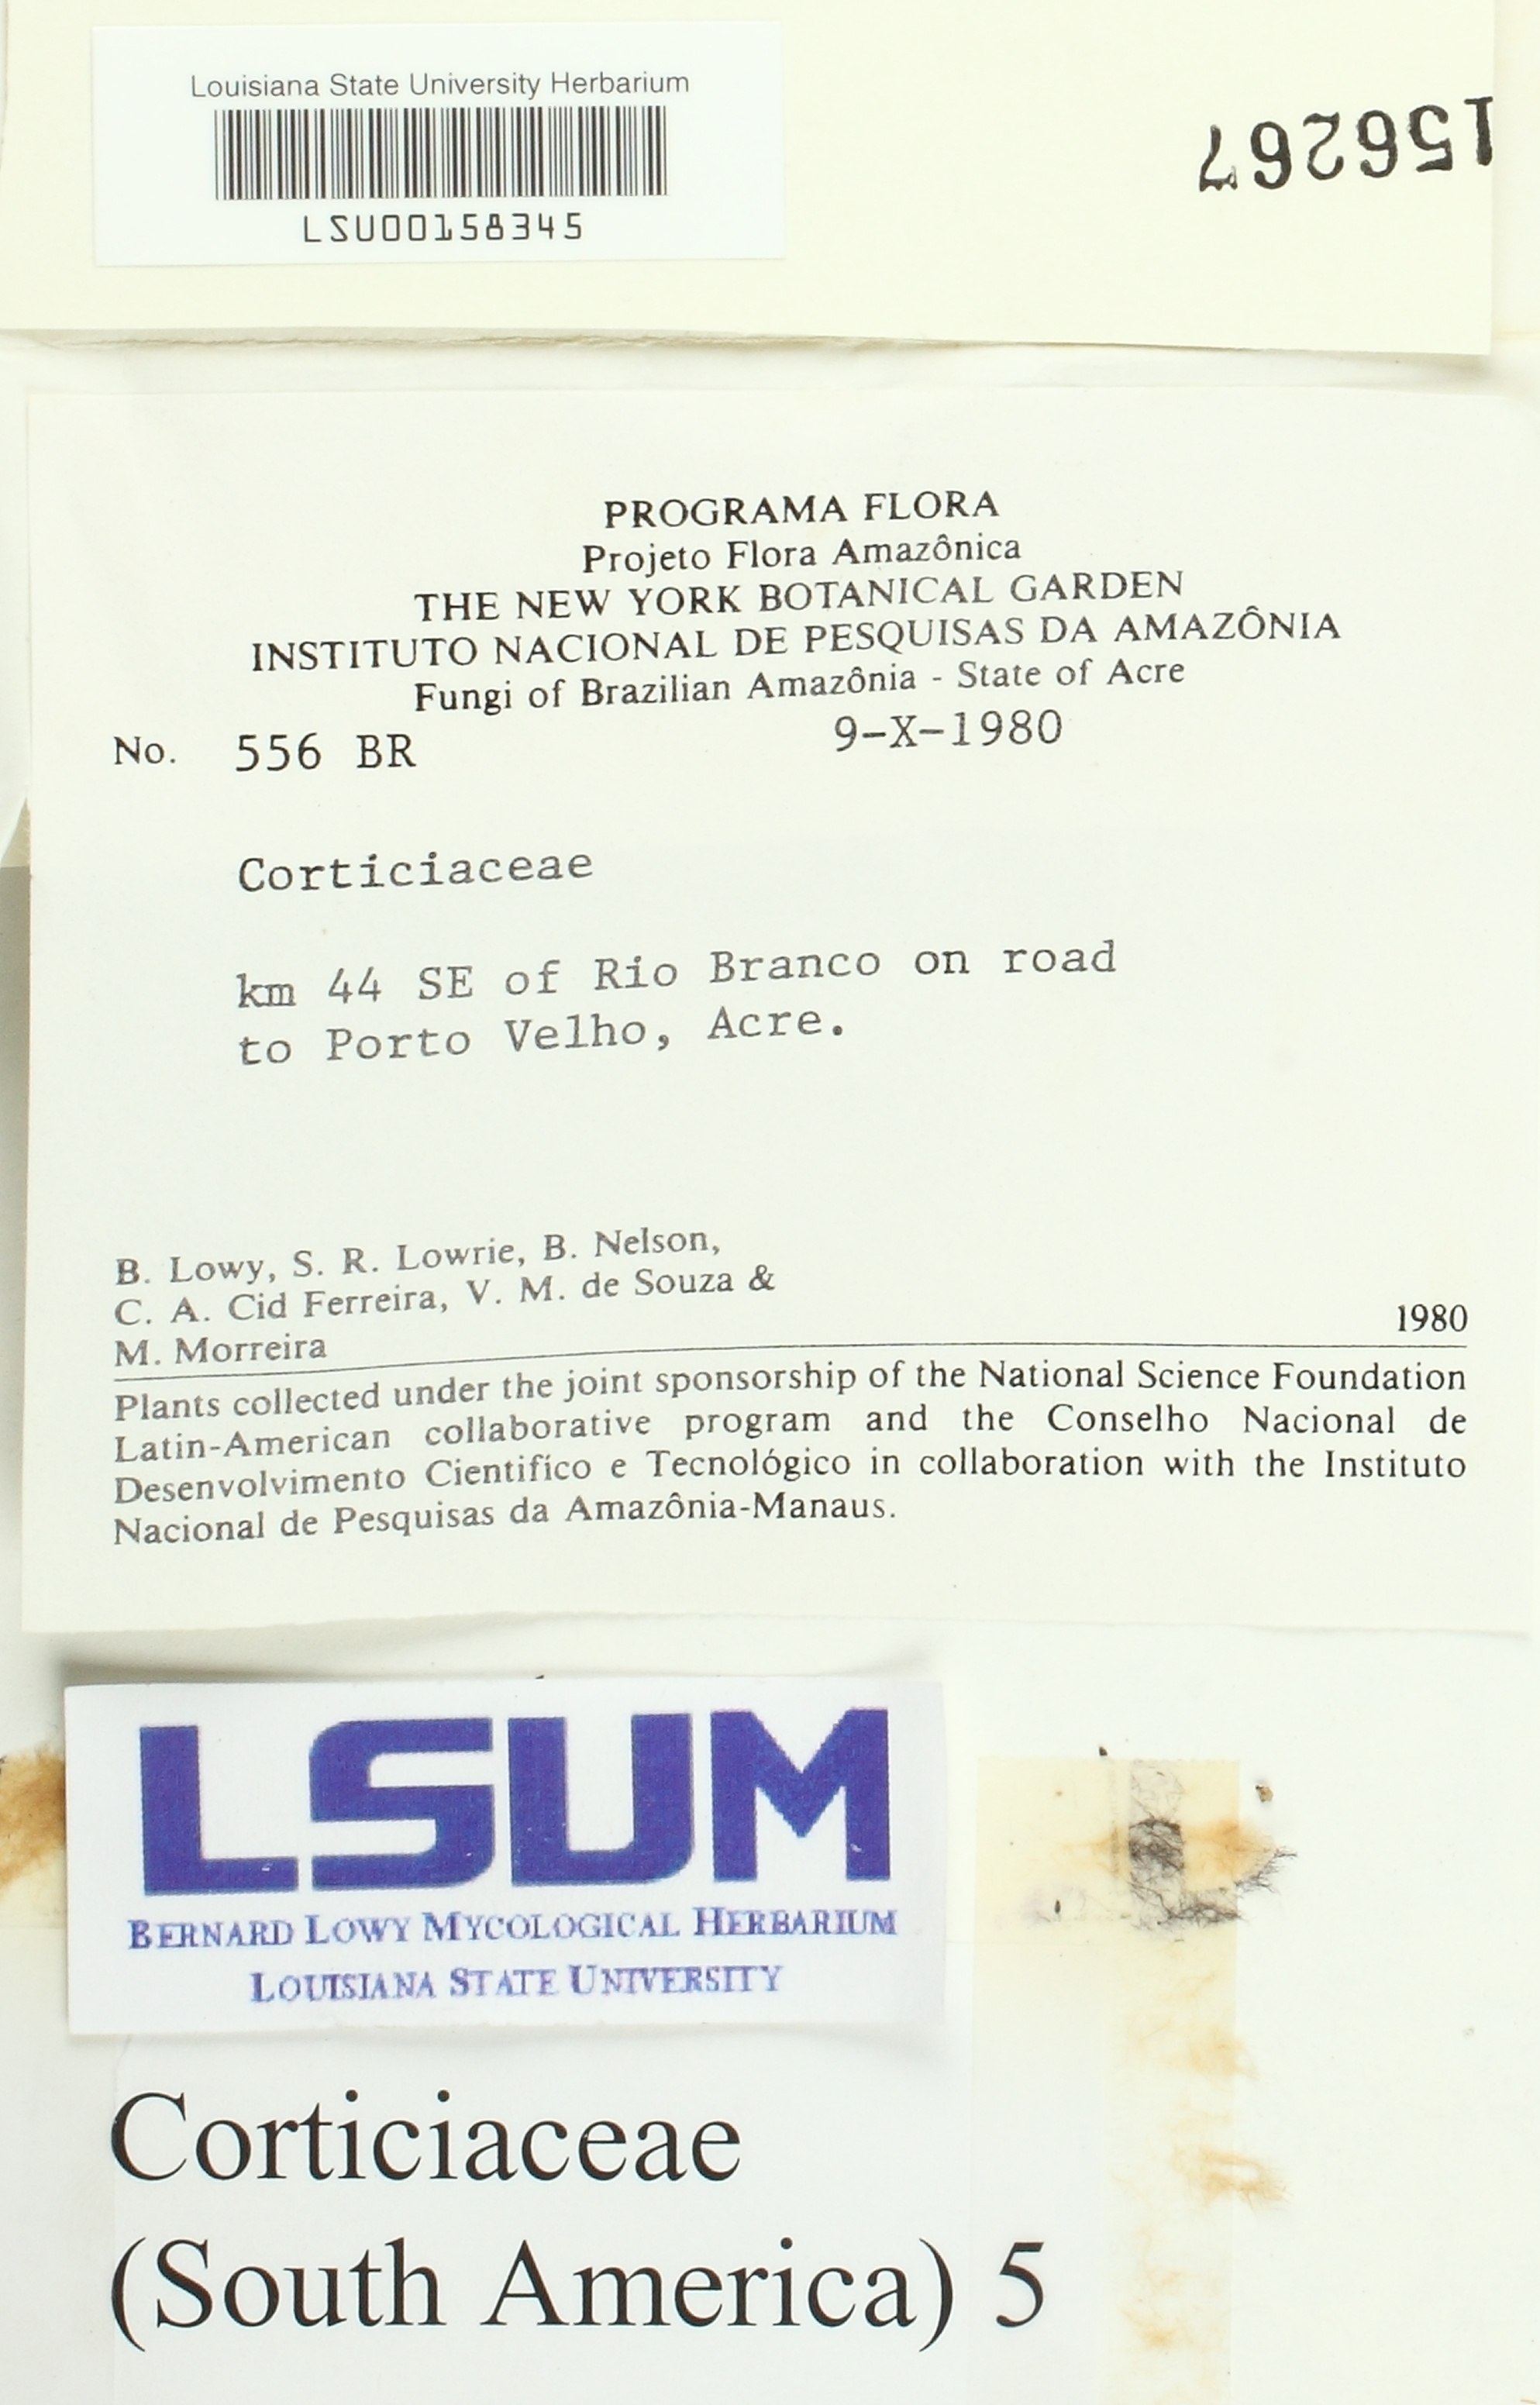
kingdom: Fungi
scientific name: Fungi
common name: Fungi
